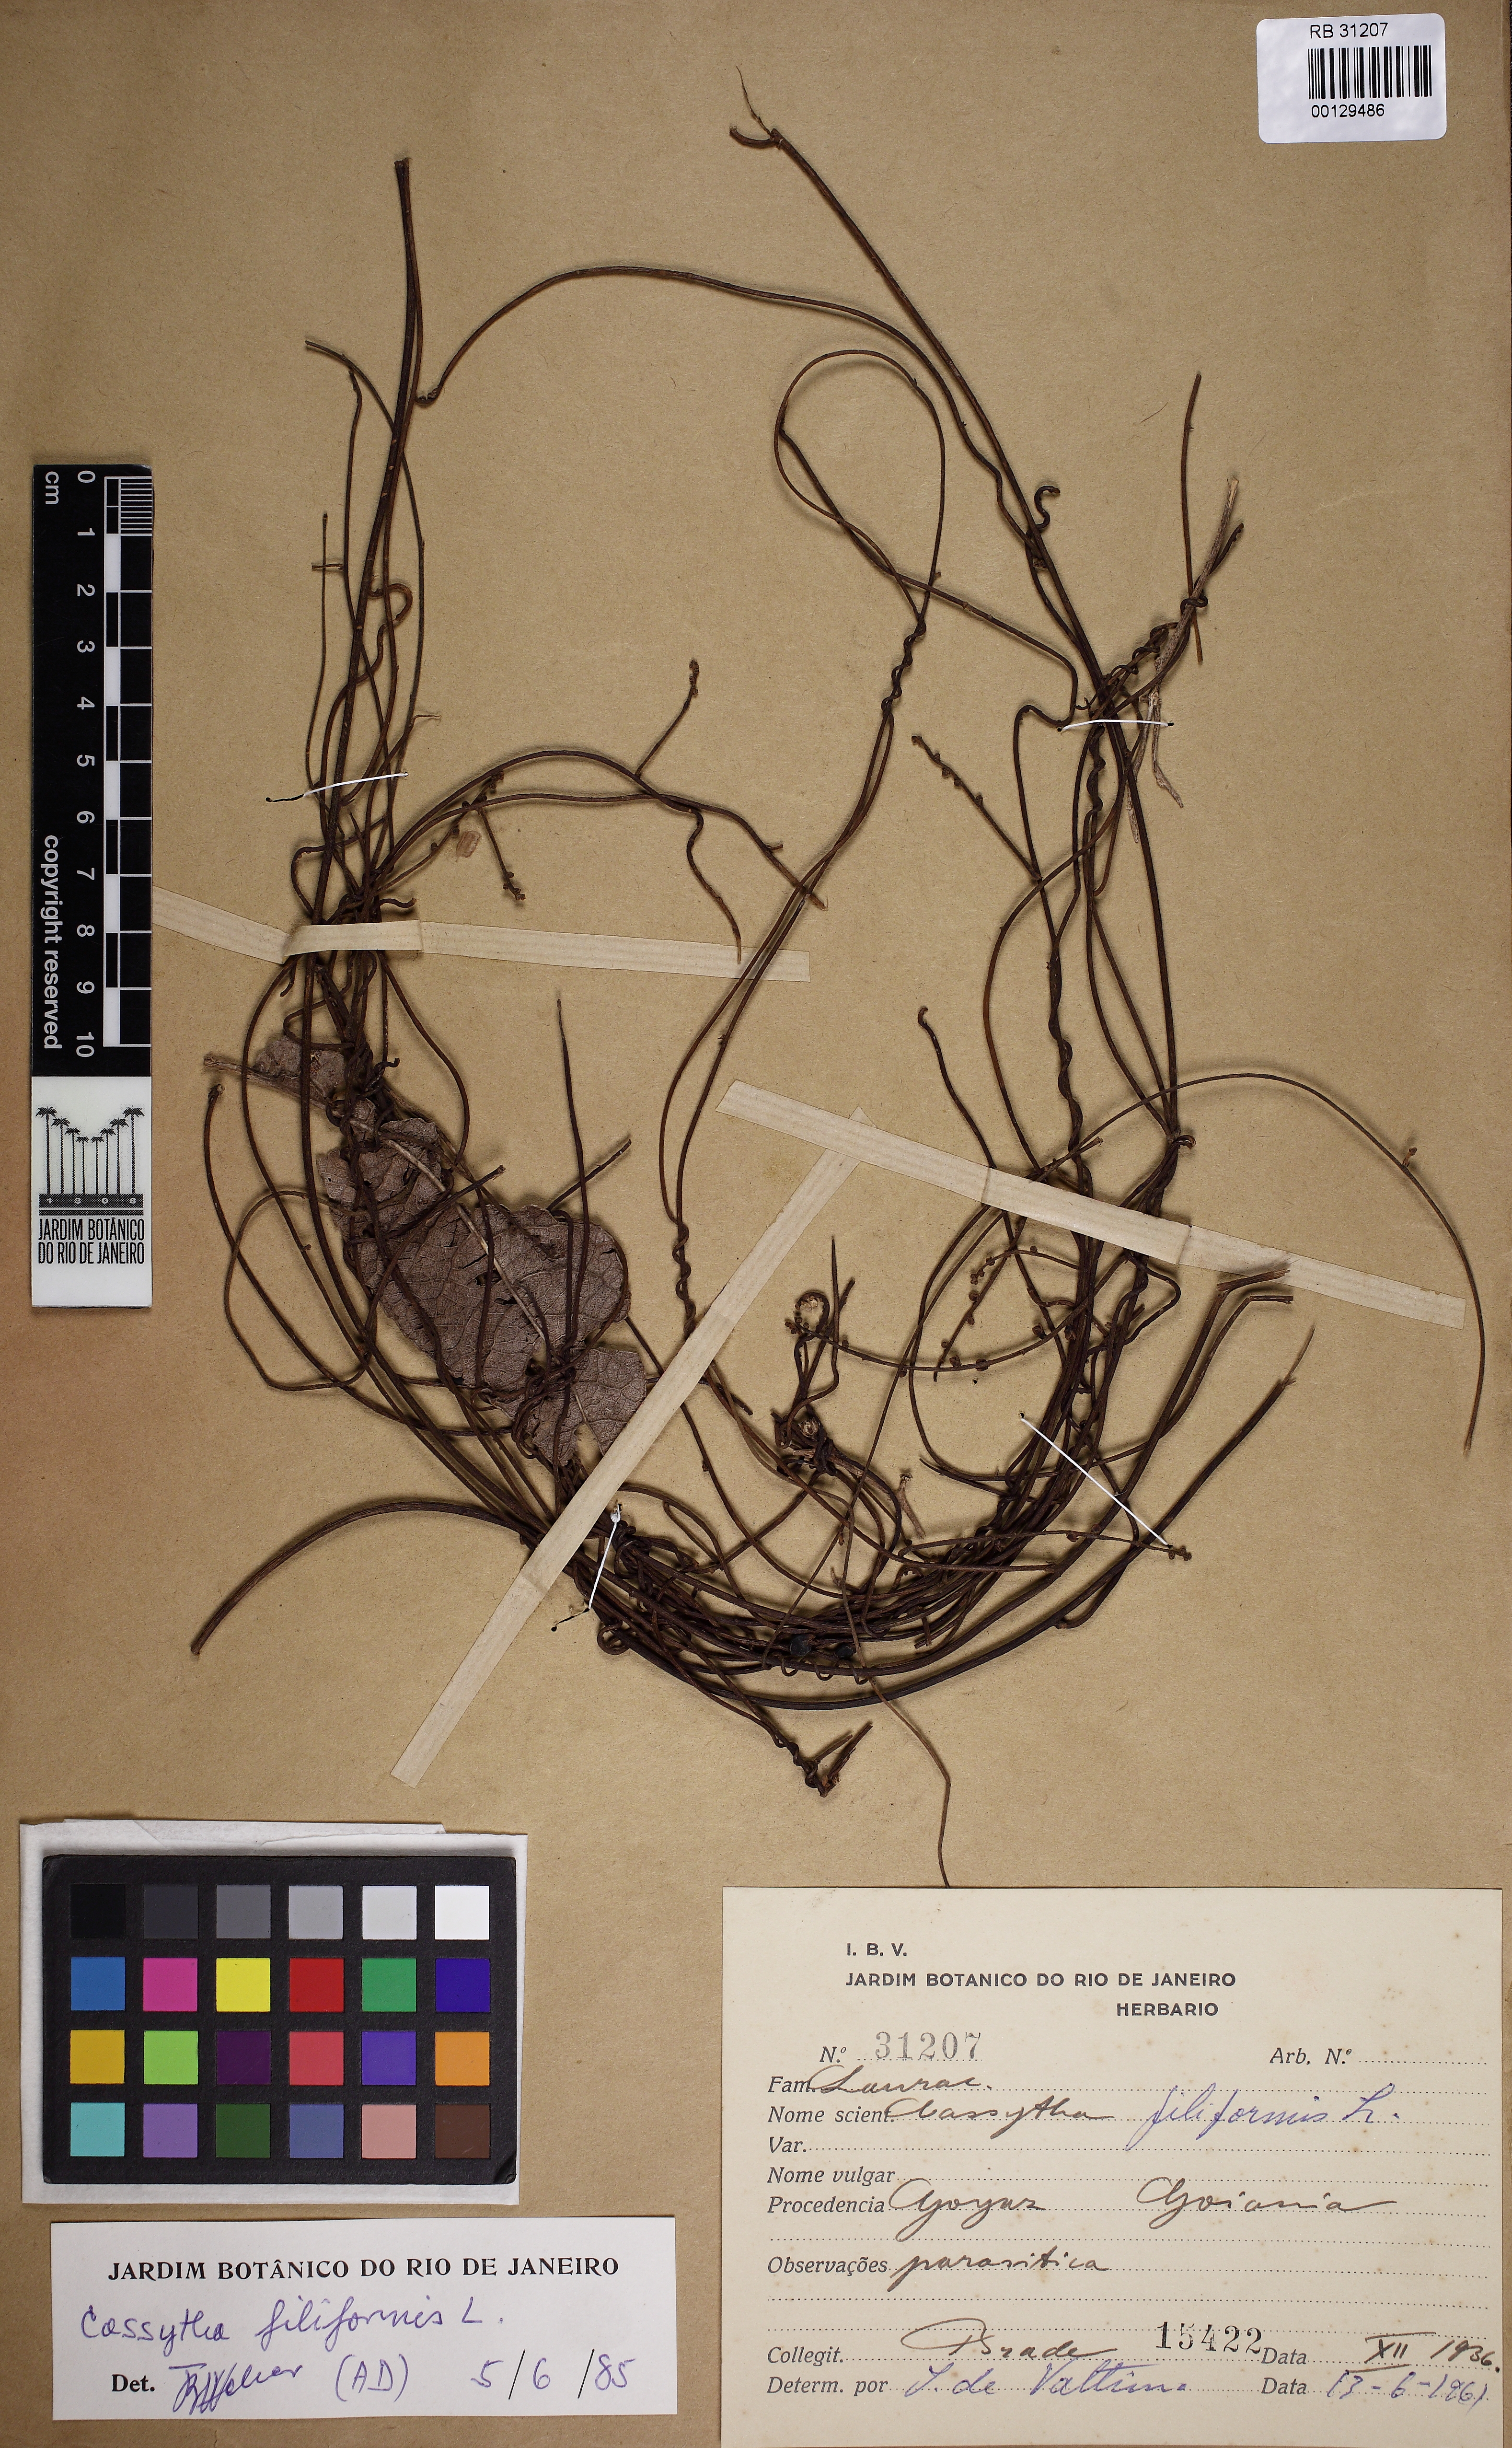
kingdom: Plantae
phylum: Tracheophyta
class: Magnoliopsida
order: Laurales
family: Lauraceae
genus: Cassytha
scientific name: Cassytha filiformis
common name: Dodder-laurel
